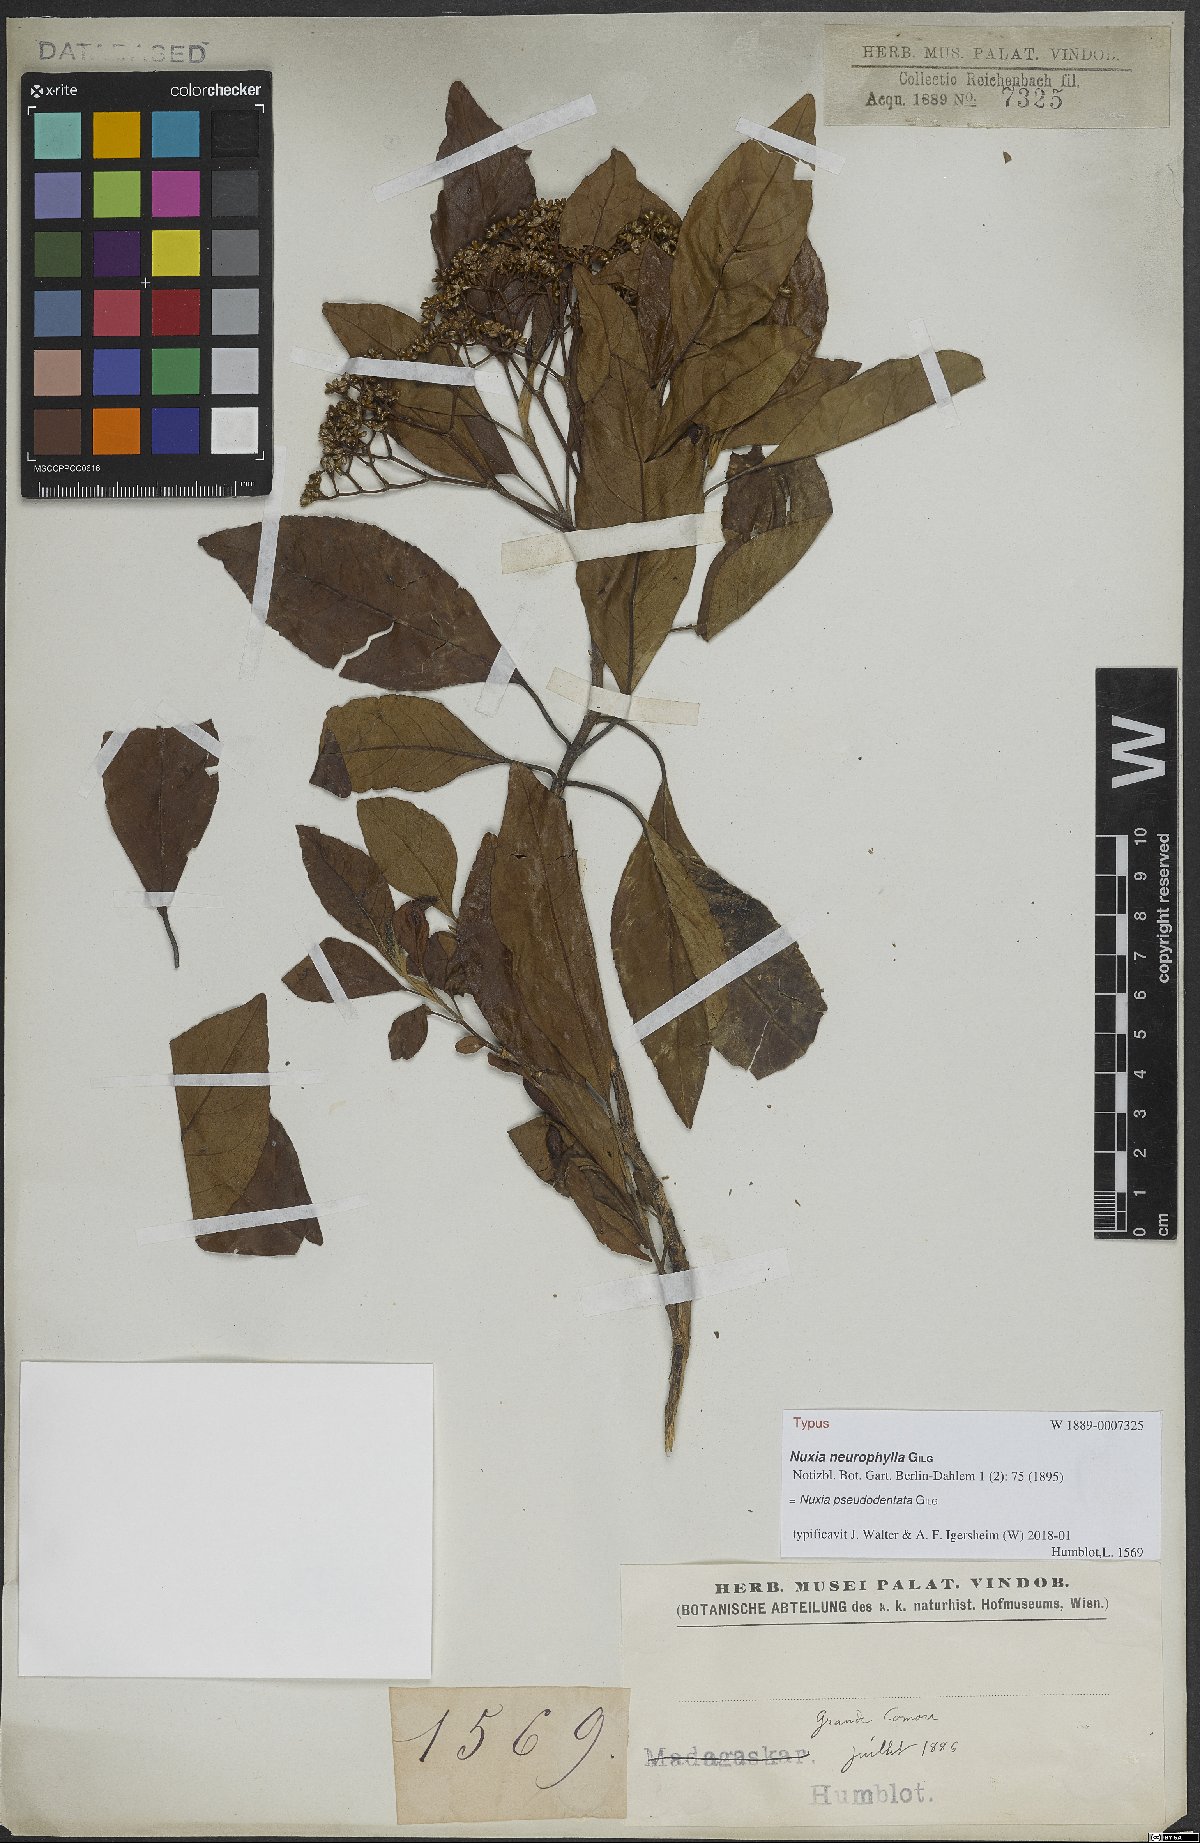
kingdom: Plantae
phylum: Tracheophyta
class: Magnoliopsida
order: Lamiales
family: Stilbaceae
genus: Nuxia
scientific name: Nuxia pseudodentata
